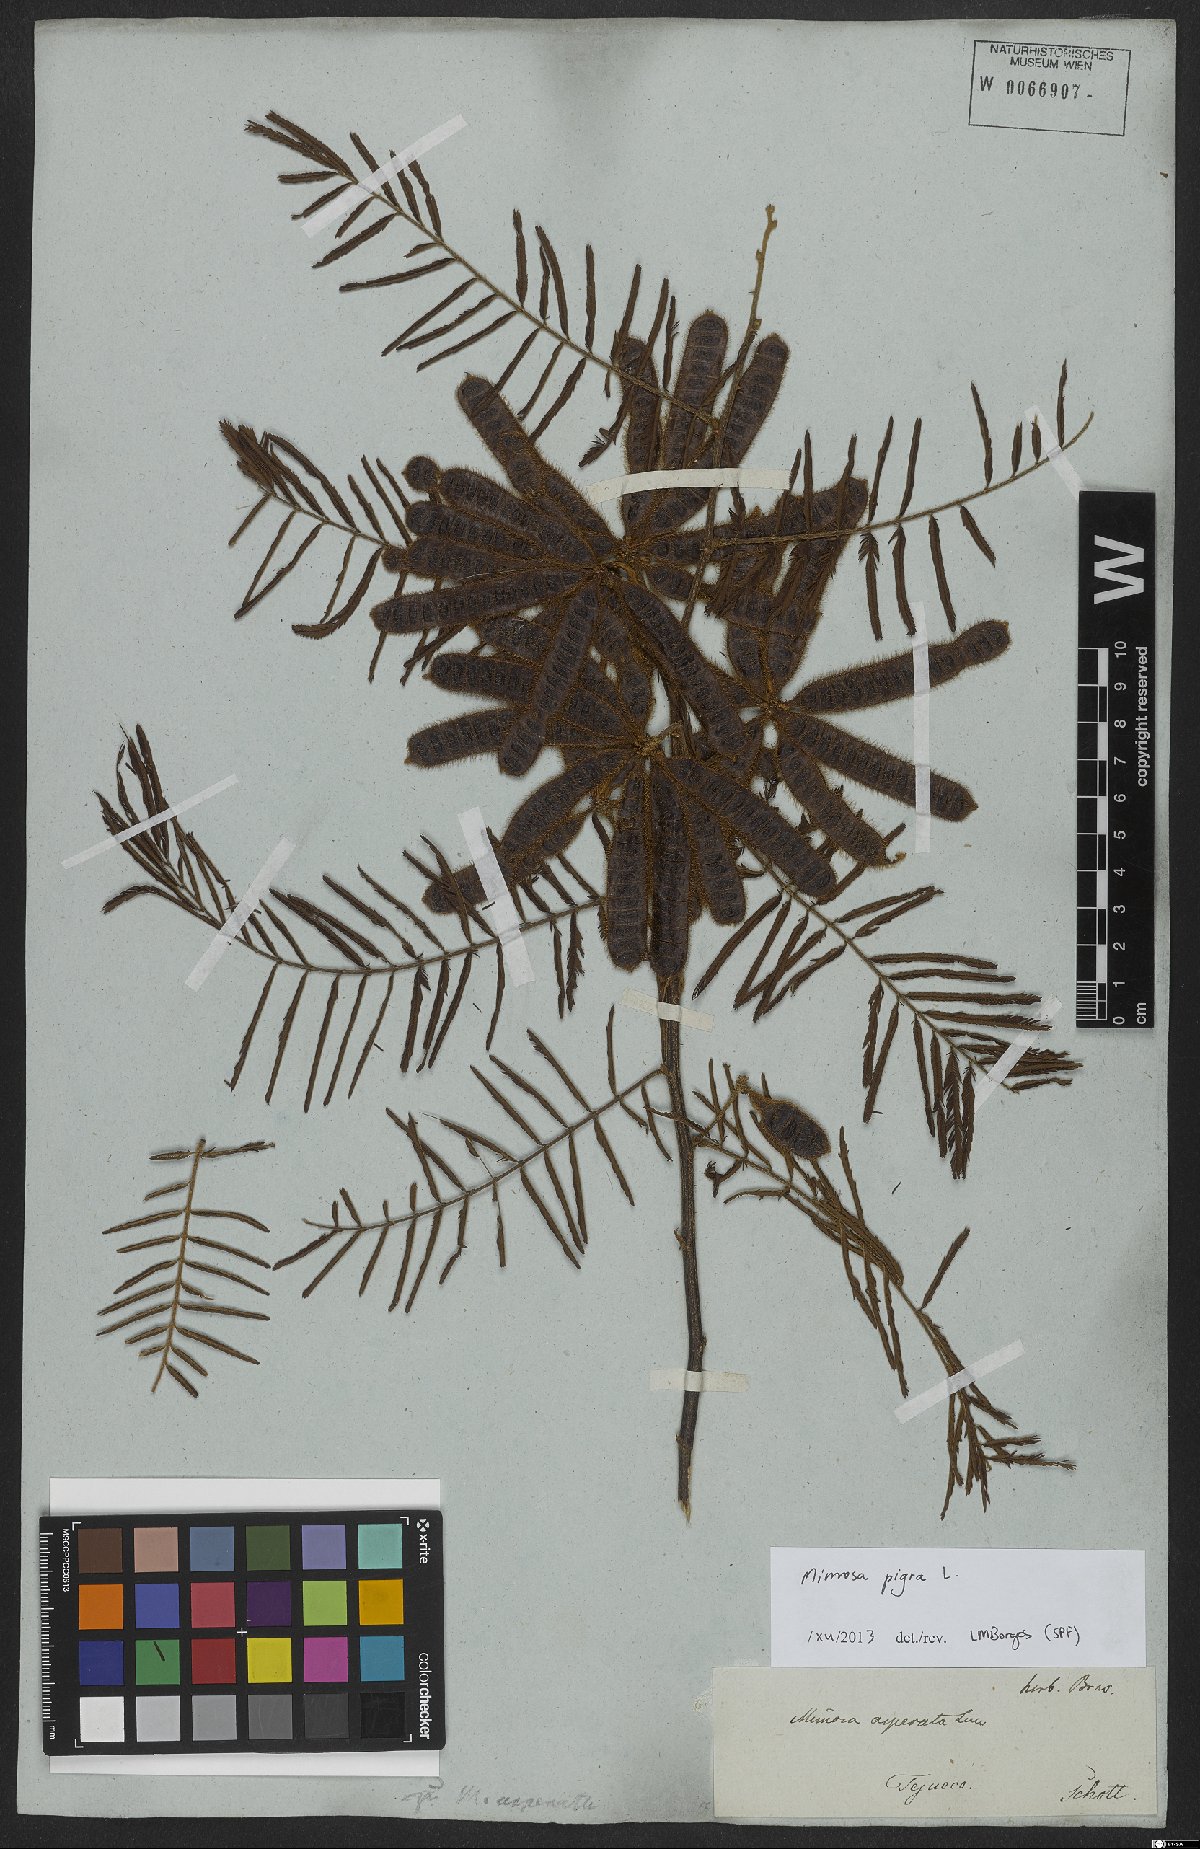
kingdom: Plantae
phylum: Tracheophyta
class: Magnoliopsida
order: Fabales
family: Fabaceae
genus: Mimosa
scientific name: Mimosa pigra
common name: Black mimosa
